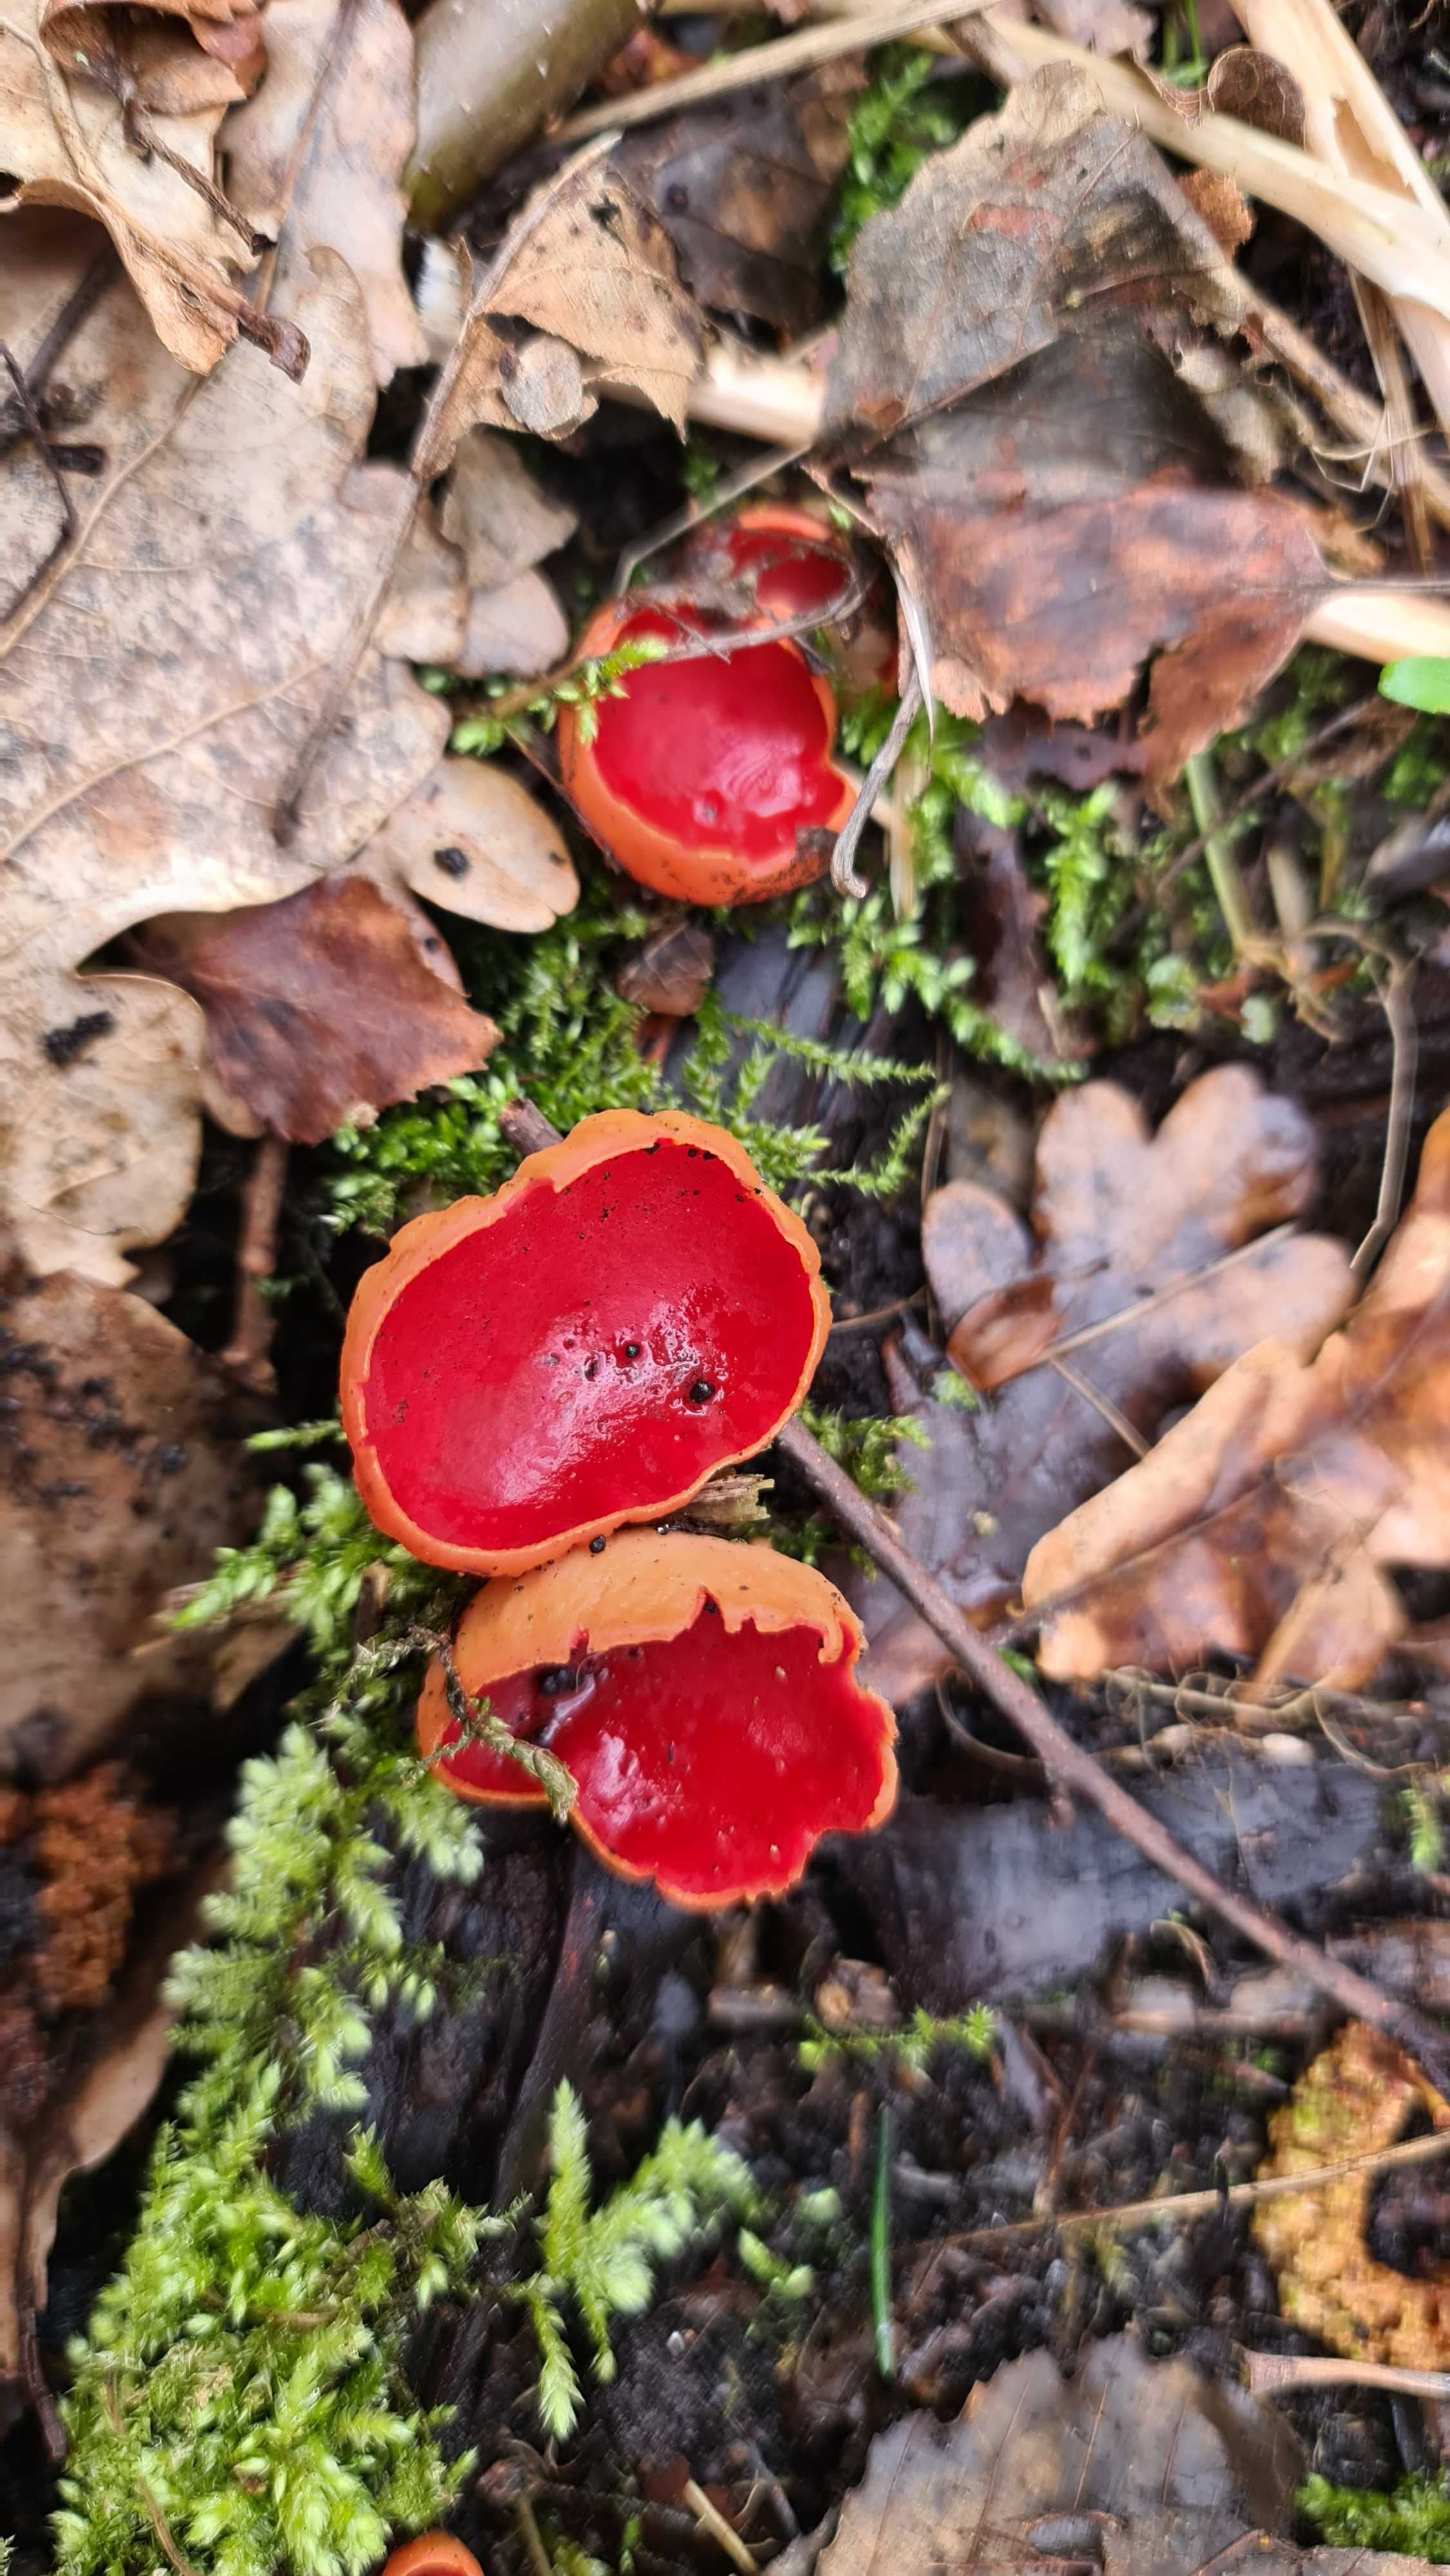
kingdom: Fungi
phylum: Ascomycota
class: Pezizomycetes
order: Pezizales
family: Sarcoscyphaceae
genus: Sarcoscypha
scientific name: Sarcoscypha austriaca
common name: krølhåret pragtbæger
